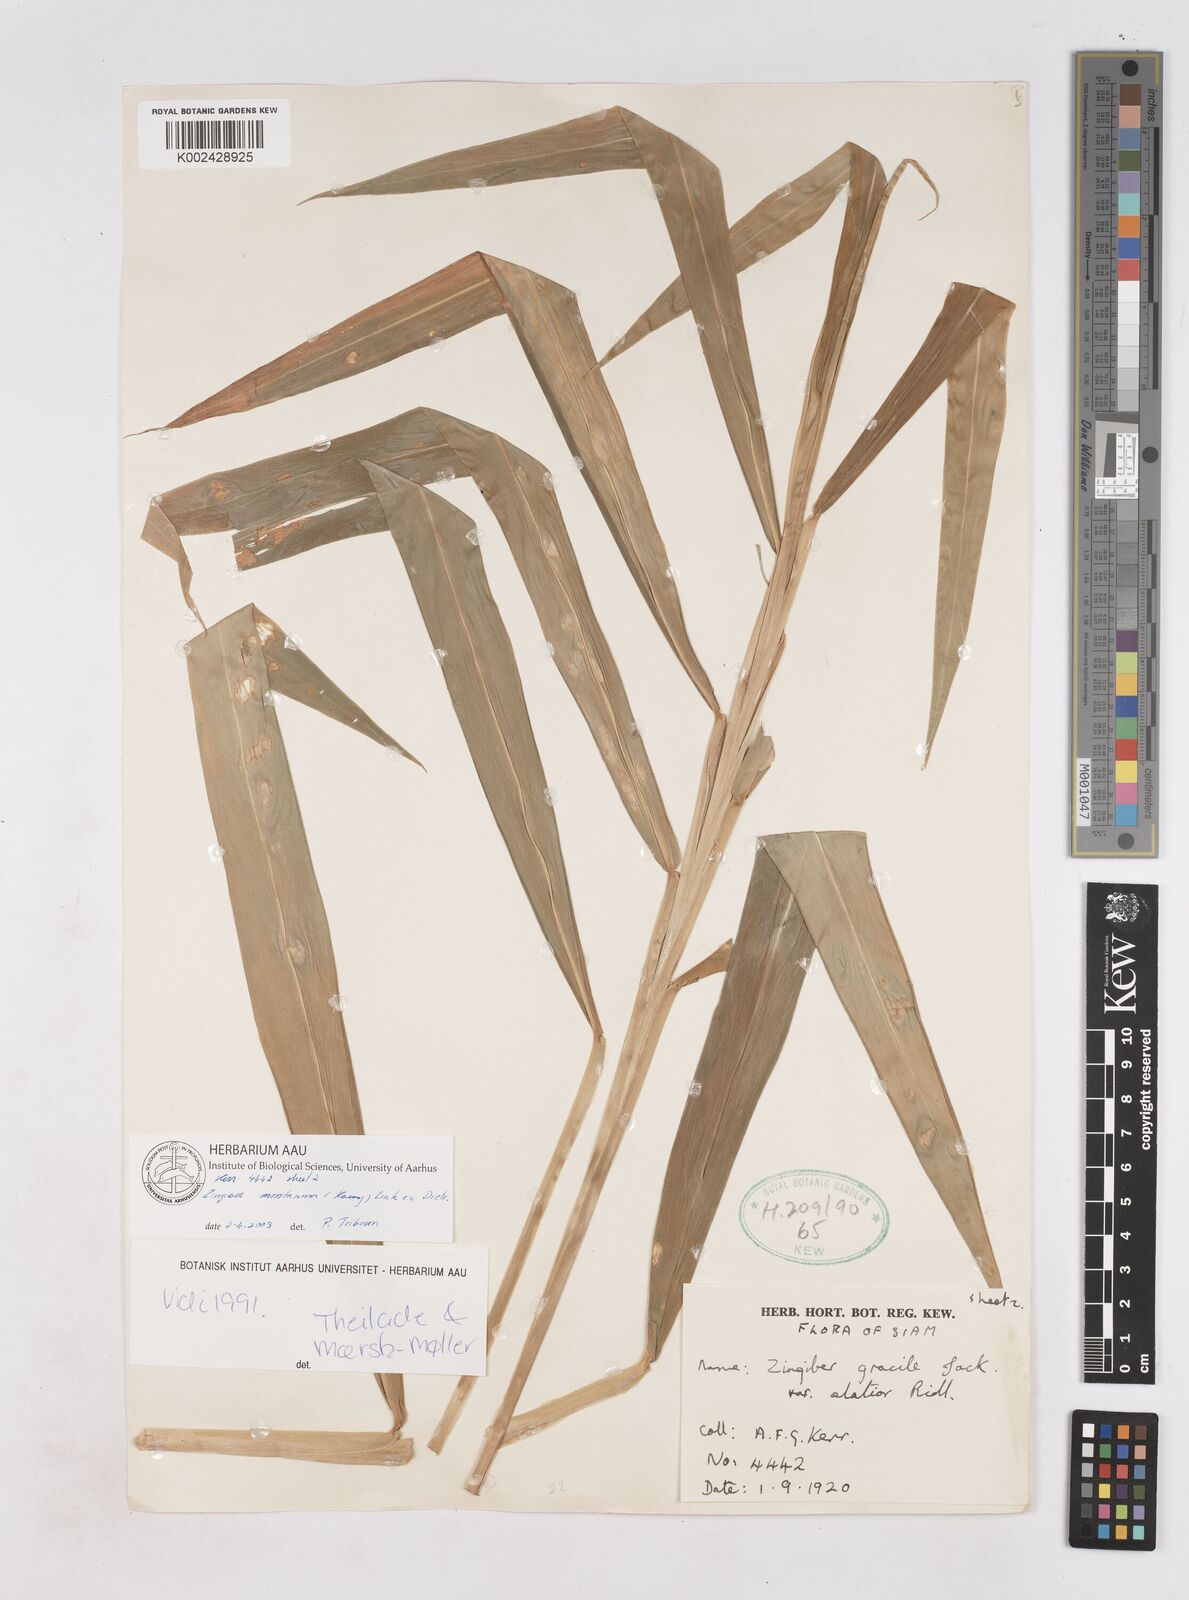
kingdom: Plantae
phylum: Tracheophyta
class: Liliopsida
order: Zingiberales
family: Zingiberaceae
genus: Zingiber
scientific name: Zingiber montanum
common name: Bengal ginger
